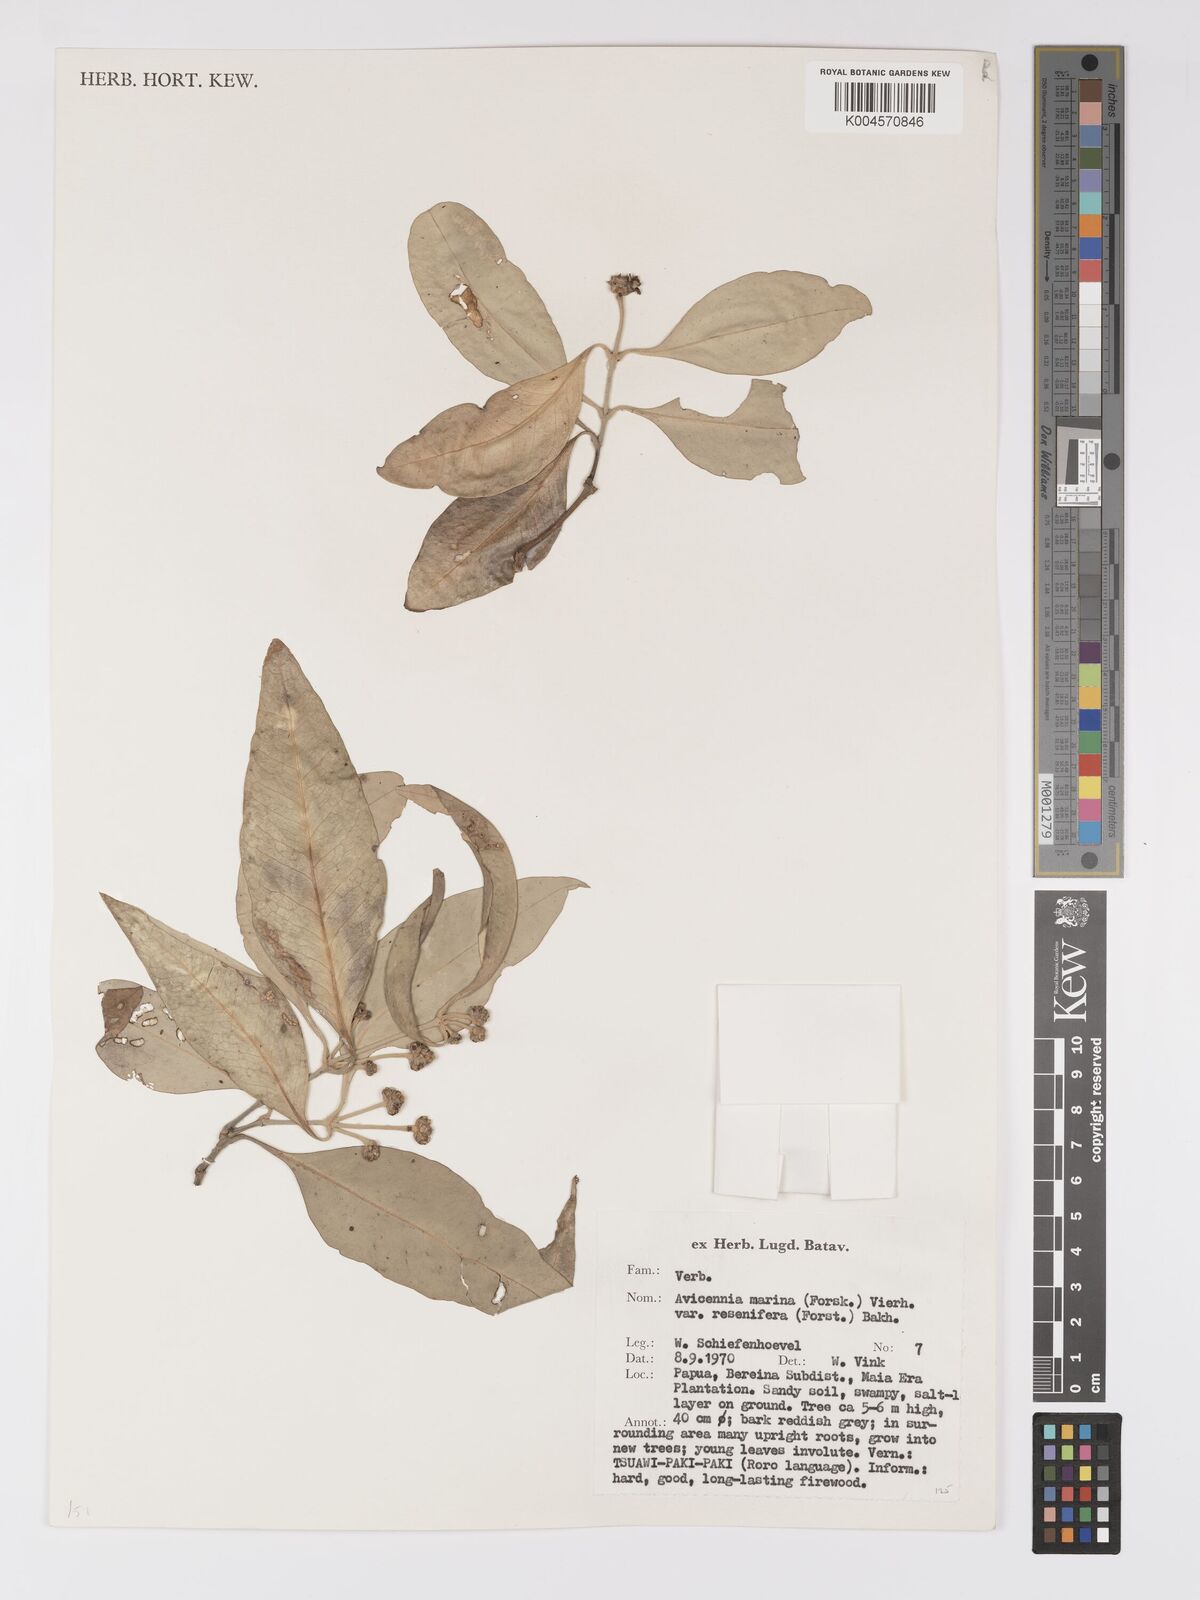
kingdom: Plantae
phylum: Tracheophyta
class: Magnoliopsida
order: Lamiales
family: Acanthaceae
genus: Avicennia
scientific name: Avicennia marina
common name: Gray mangrove
